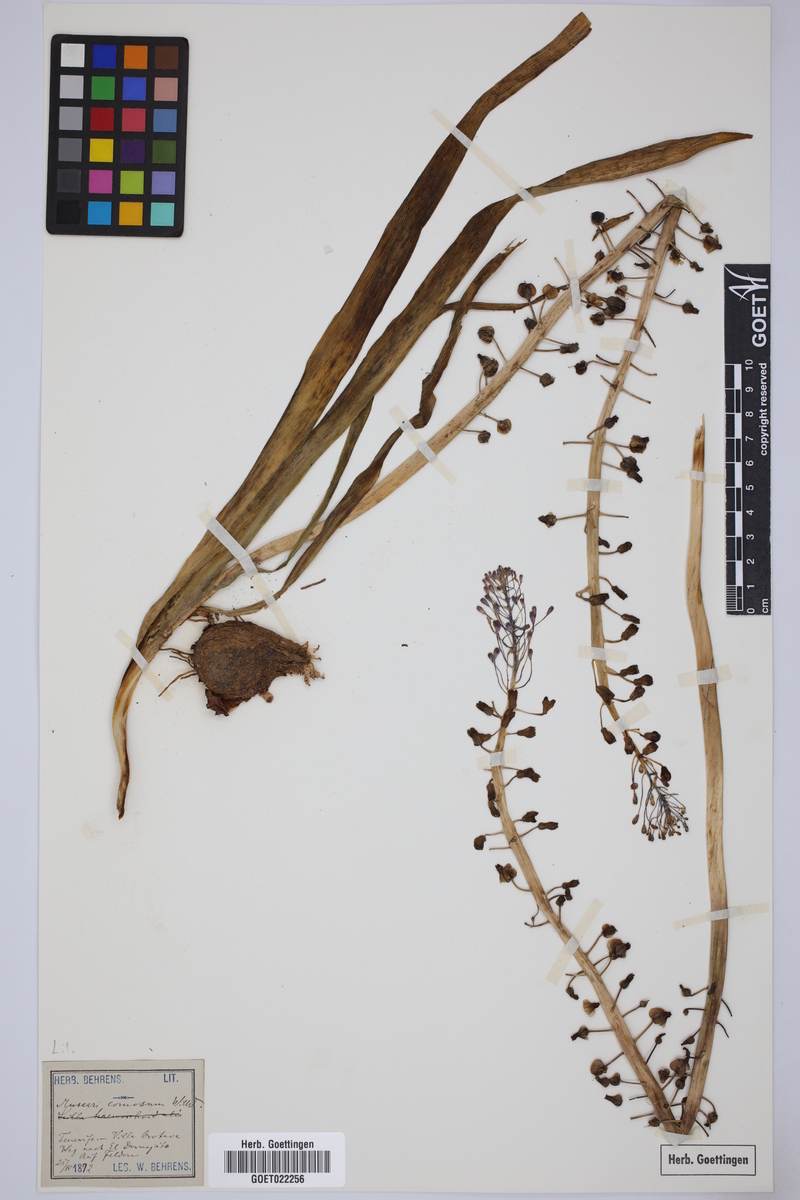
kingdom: Plantae
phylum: Tracheophyta
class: Liliopsida
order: Asparagales
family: Asparagaceae
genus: Muscari
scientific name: Muscari comosum
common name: Tassel hyacinth
